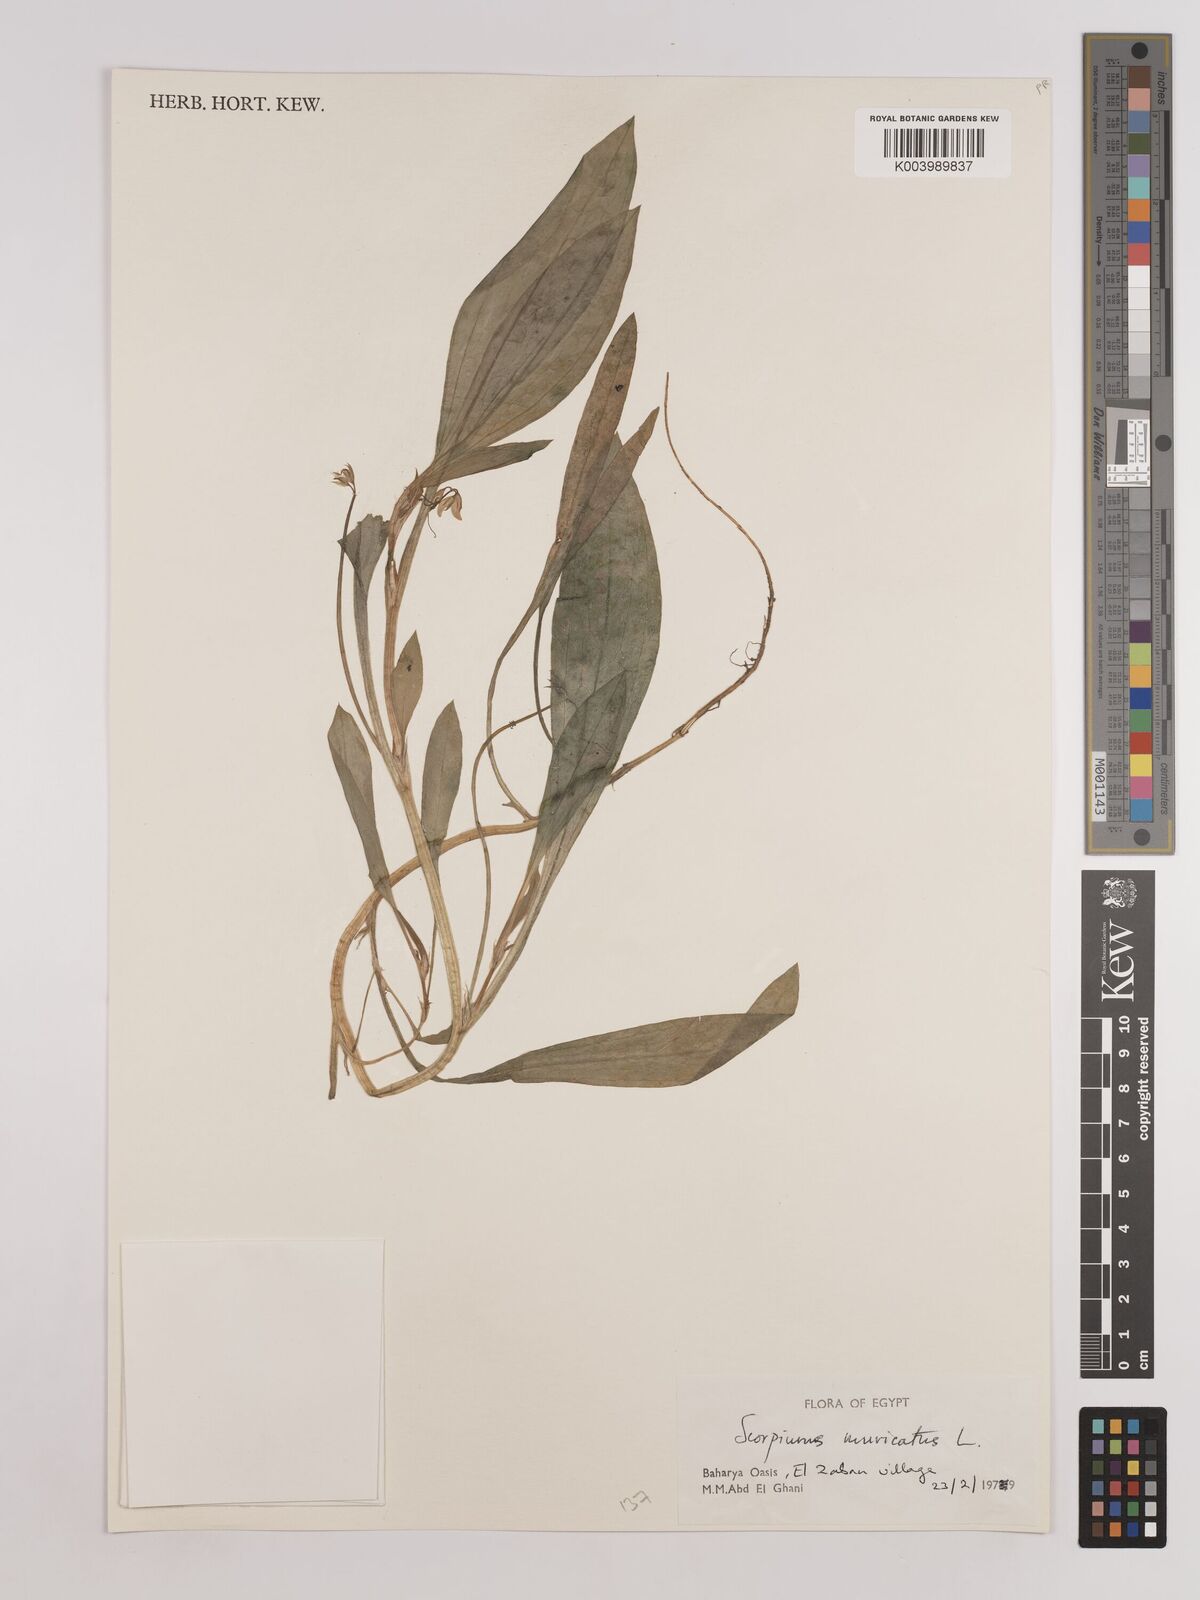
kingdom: Plantae
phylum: Tracheophyta
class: Magnoliopsida
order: Fabales
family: Fabaceae
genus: Scorpiurus
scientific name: Scorpiurus muricatus
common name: Caterpillar-plant
